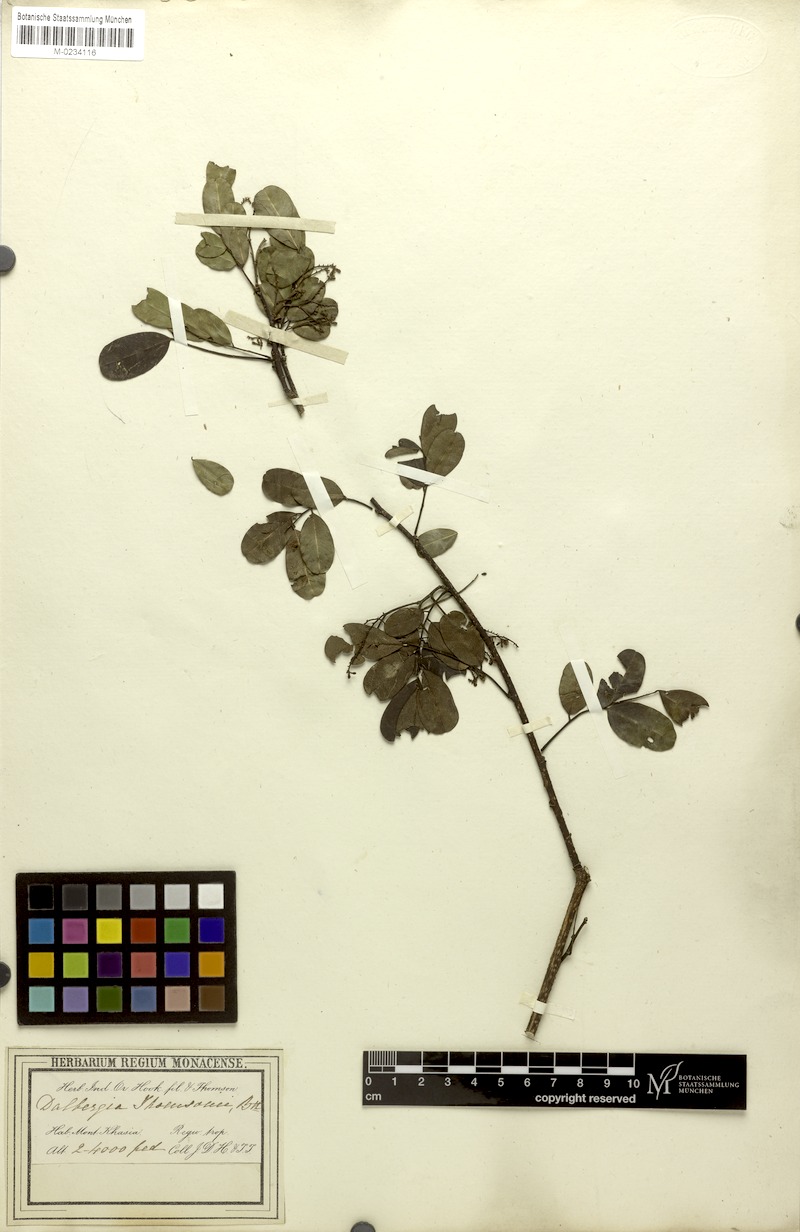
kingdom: Plantae
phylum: Tracheophyta
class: Magnoliopsida
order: Fabales
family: Fabaceae
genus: Dalbergia
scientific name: Dalbergia thomsonii
